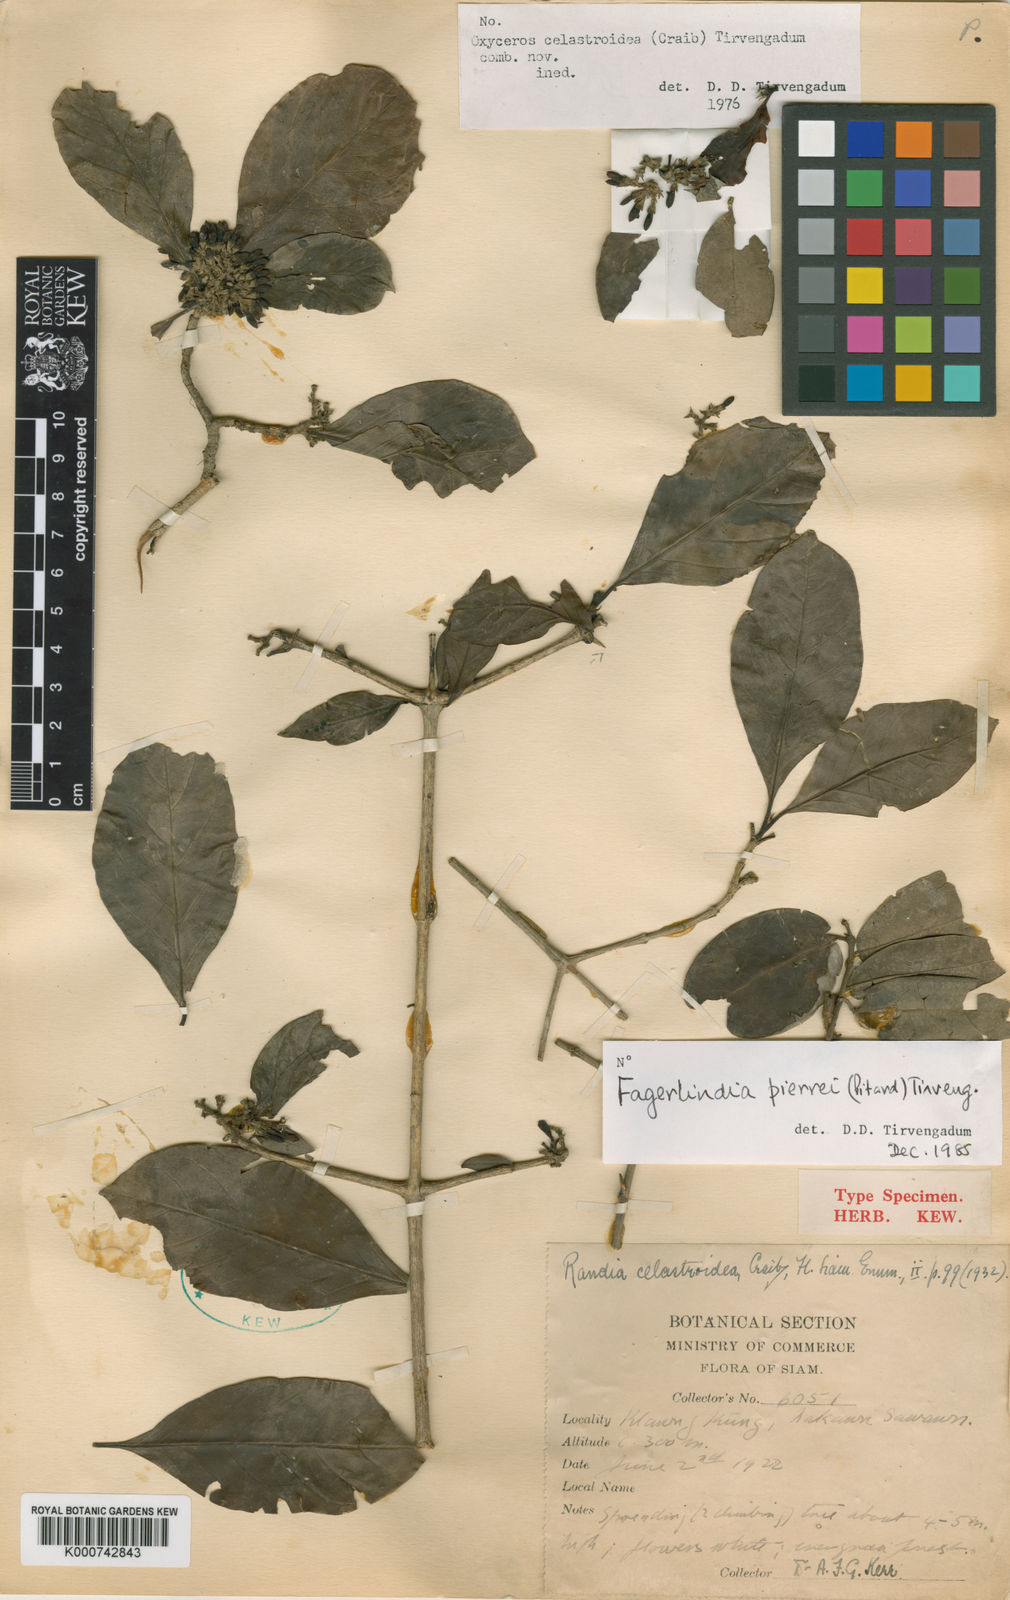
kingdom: Plantae
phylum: Tracheophyta
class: Magnoliopsida
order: Gentianales
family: Rubiaceae
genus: Benkara
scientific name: Benkara
